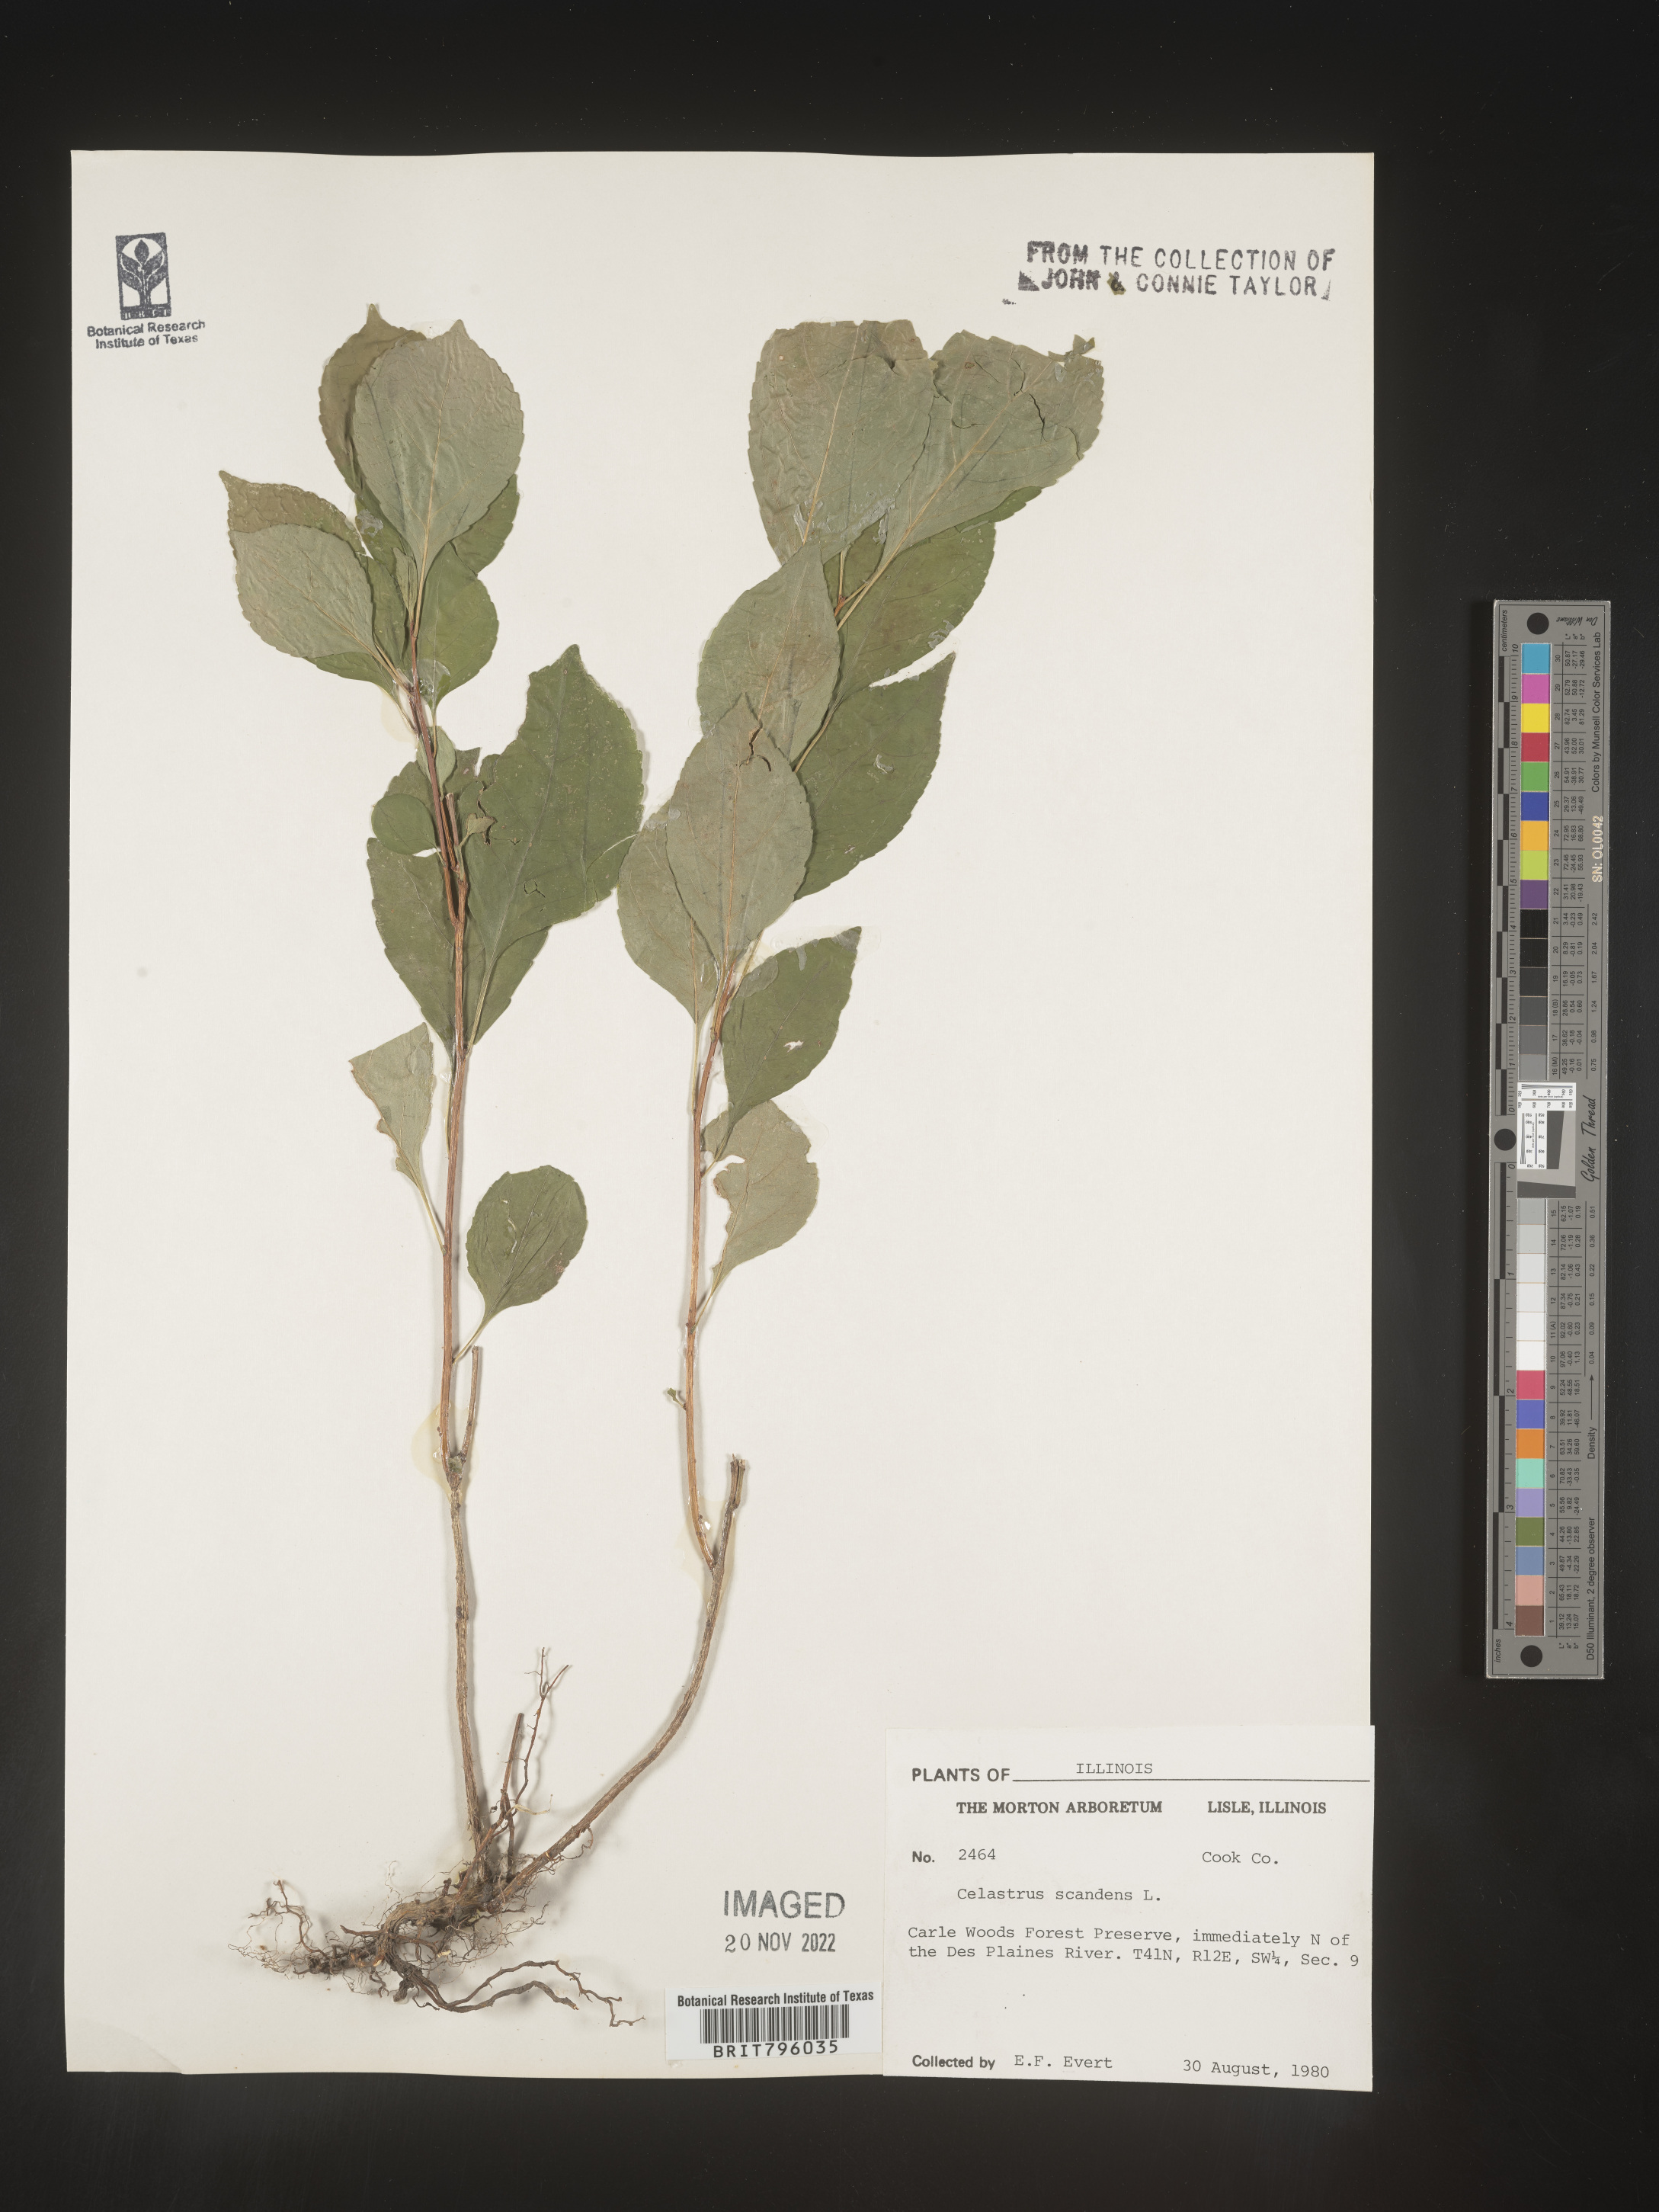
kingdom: Plantae
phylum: Tracheophyta
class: Magnoliopsida
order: Celastrales
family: Celastraceae
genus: Celastrus
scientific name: Celastrus scandens
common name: American bittersweet
